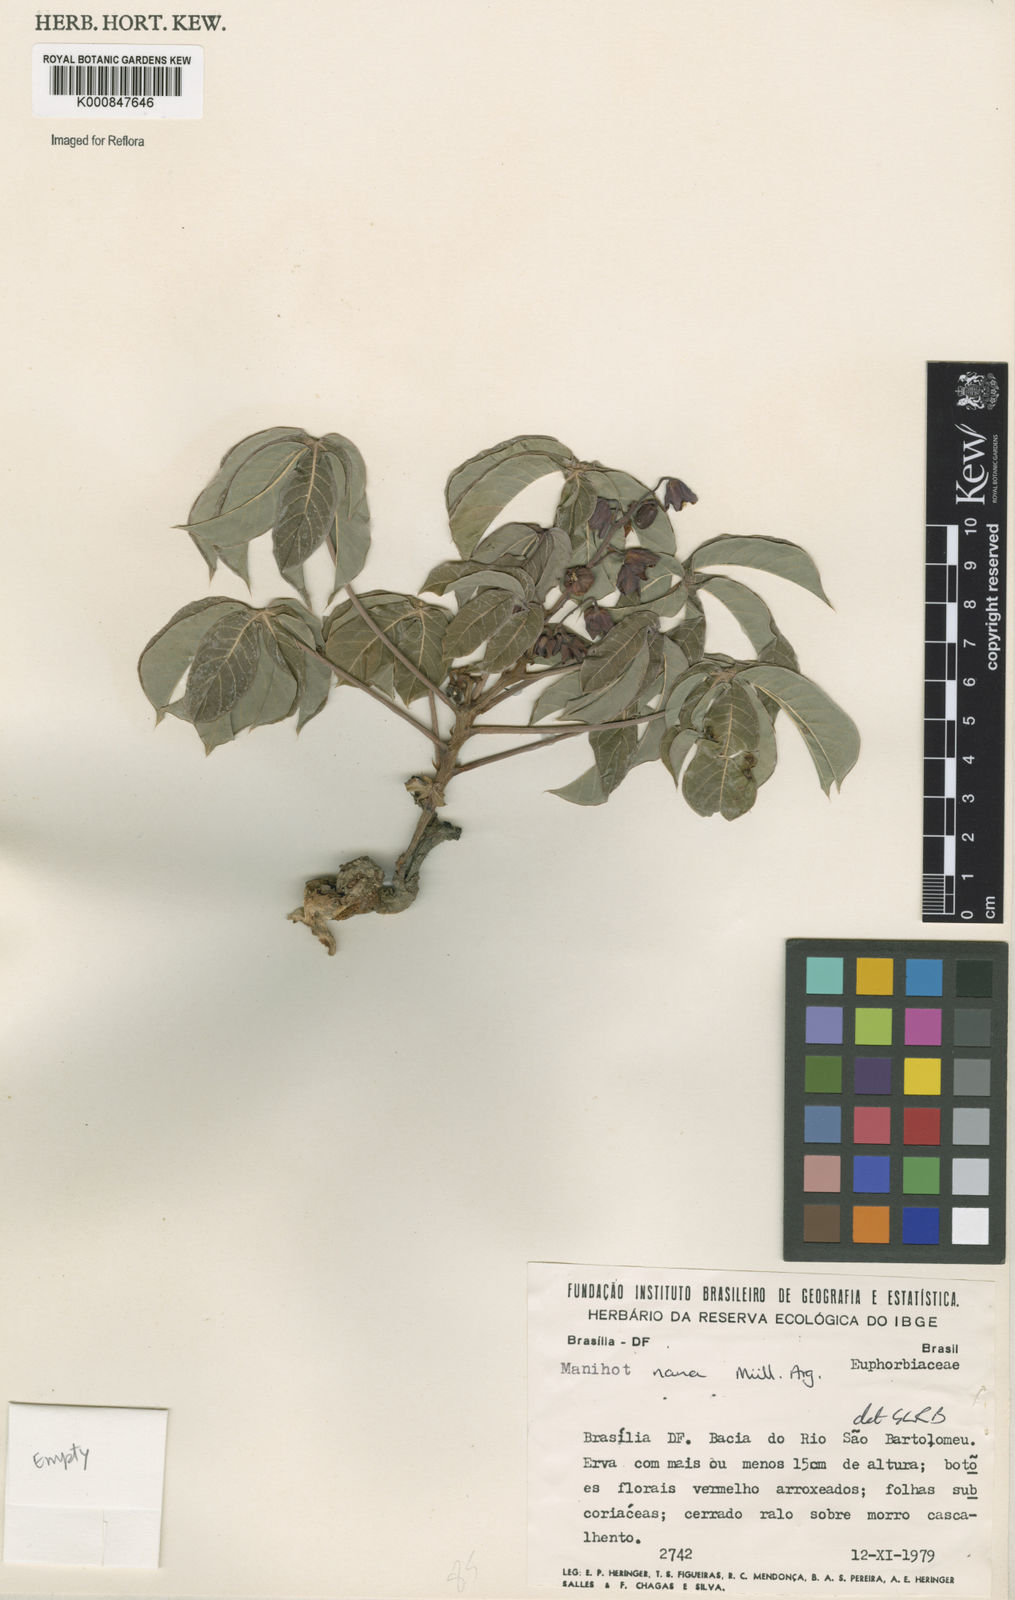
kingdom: Plantae
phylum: Tracheophyta
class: Magnoliopsida
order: Malpighiales
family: Euphorbiaceae
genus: Manihot
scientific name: Manihot
